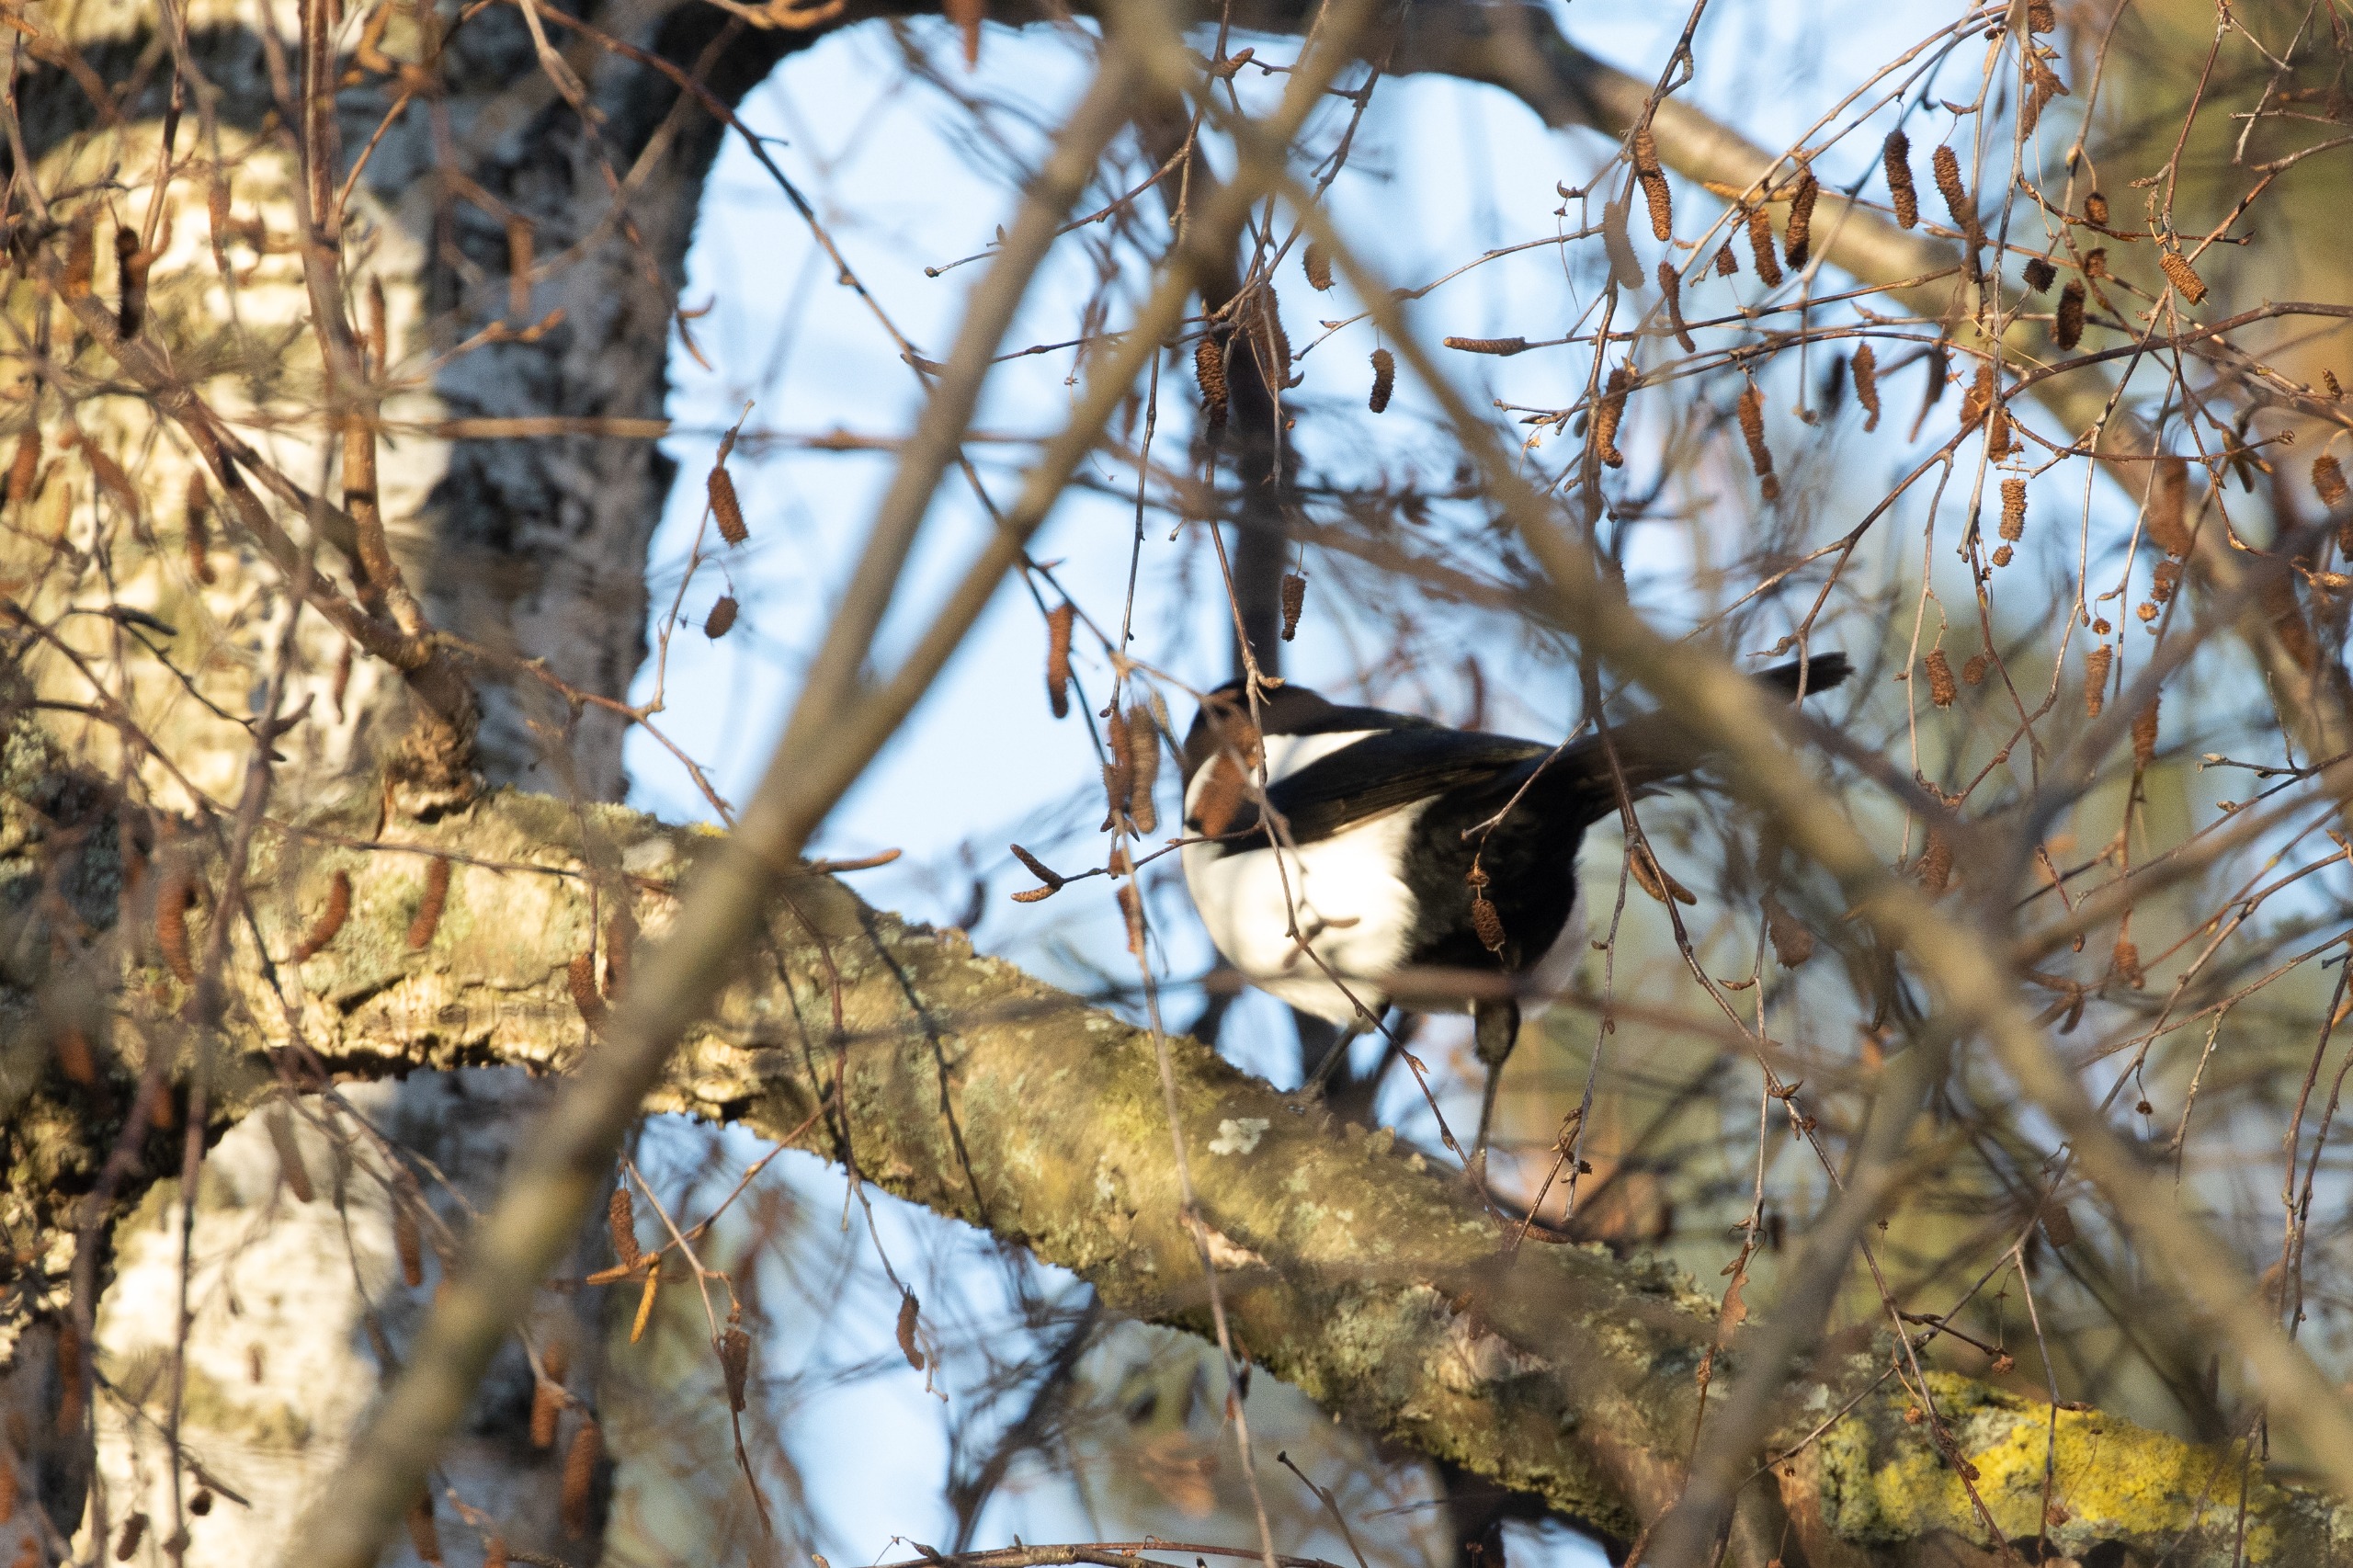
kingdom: Animalia
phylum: Chordata
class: Aves
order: Passeriformes
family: Corvidae
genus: Pica
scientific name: Pica pica
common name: Husskade
